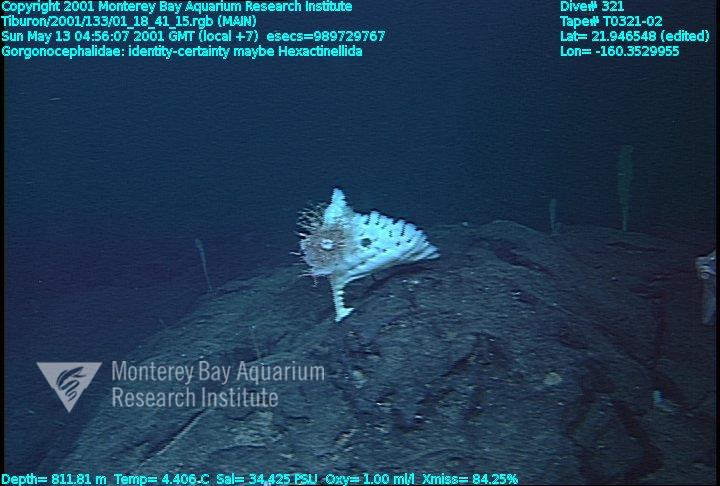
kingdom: Animalia
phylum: Porifera
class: Hexactinellida
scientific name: Hexactinellida
